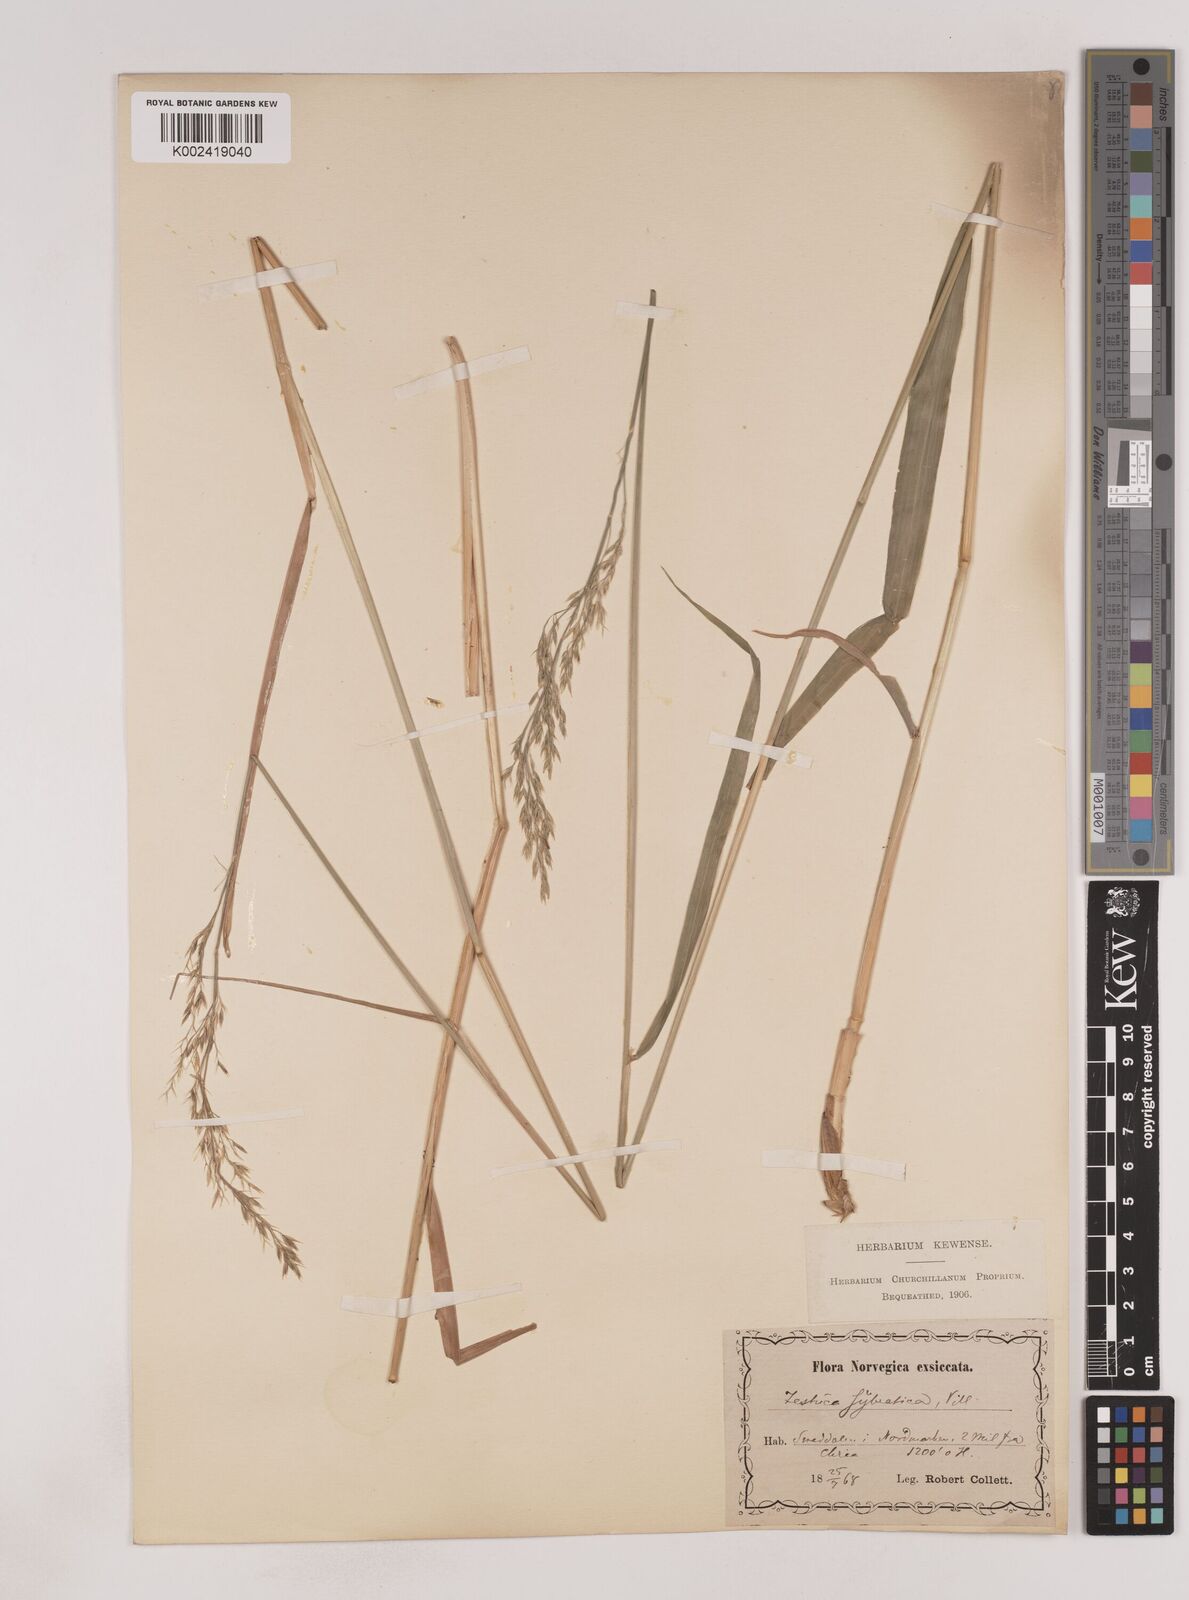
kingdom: Plantae
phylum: Tracheophyta
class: Liliopsida
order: Poales
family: Poaceae
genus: Festuca
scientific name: Festuca drymeja
